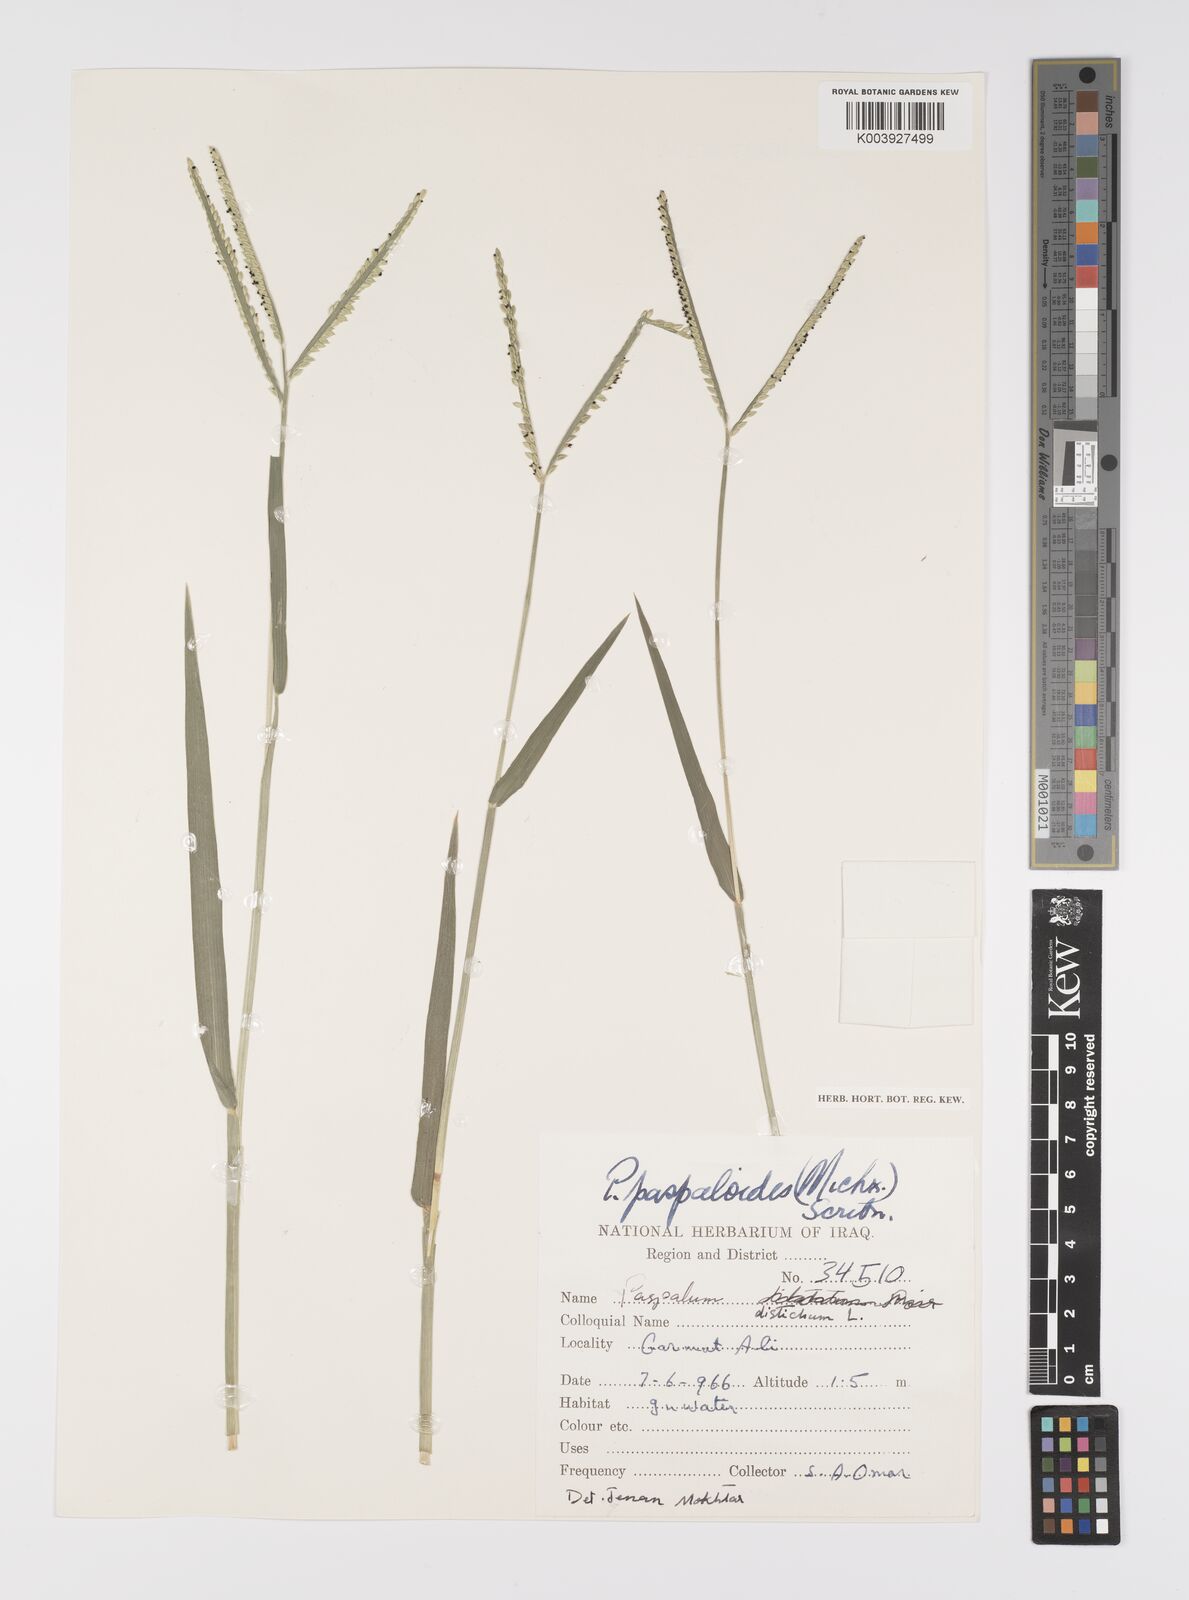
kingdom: Plantae
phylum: Tracheophyta
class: Liliopsida
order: Poales
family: Poaceae
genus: Paspalum
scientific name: Paspalum distichum
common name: Knotgrass
